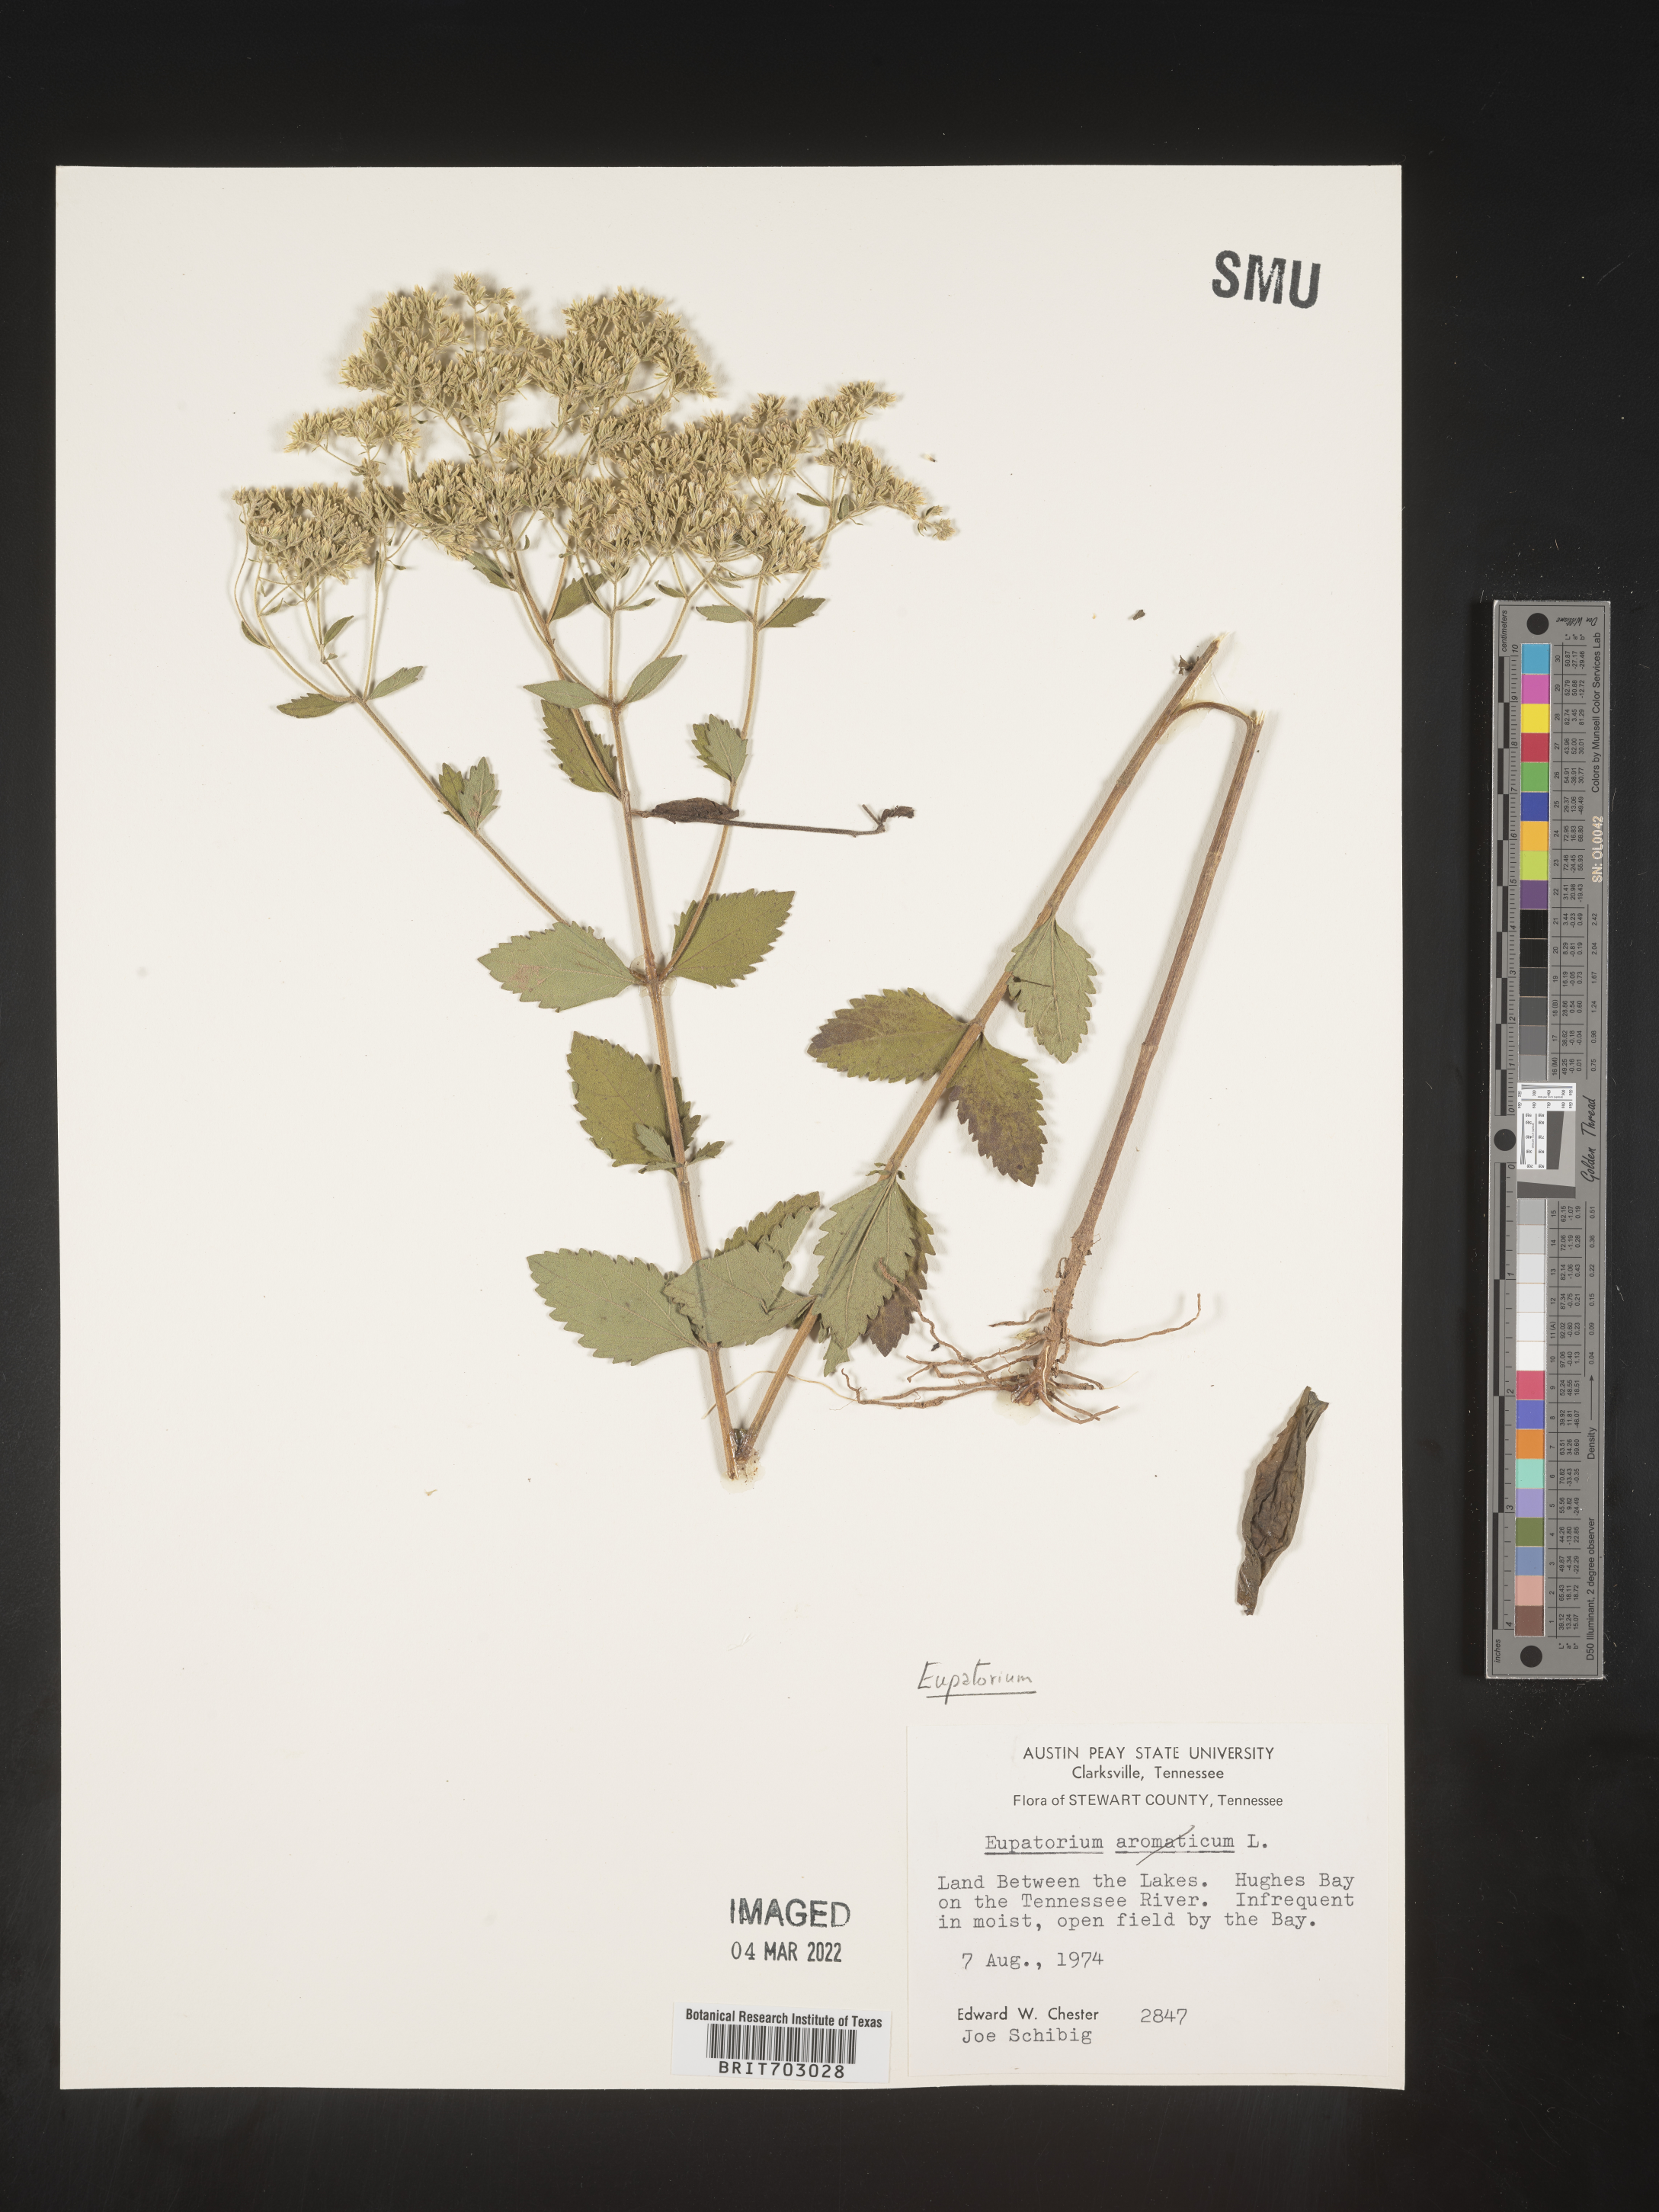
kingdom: Plantae
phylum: Tracheophyta
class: Magnoliopsida
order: Asterales
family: Asteraceae
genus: Eupatorium
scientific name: Eupatorium
